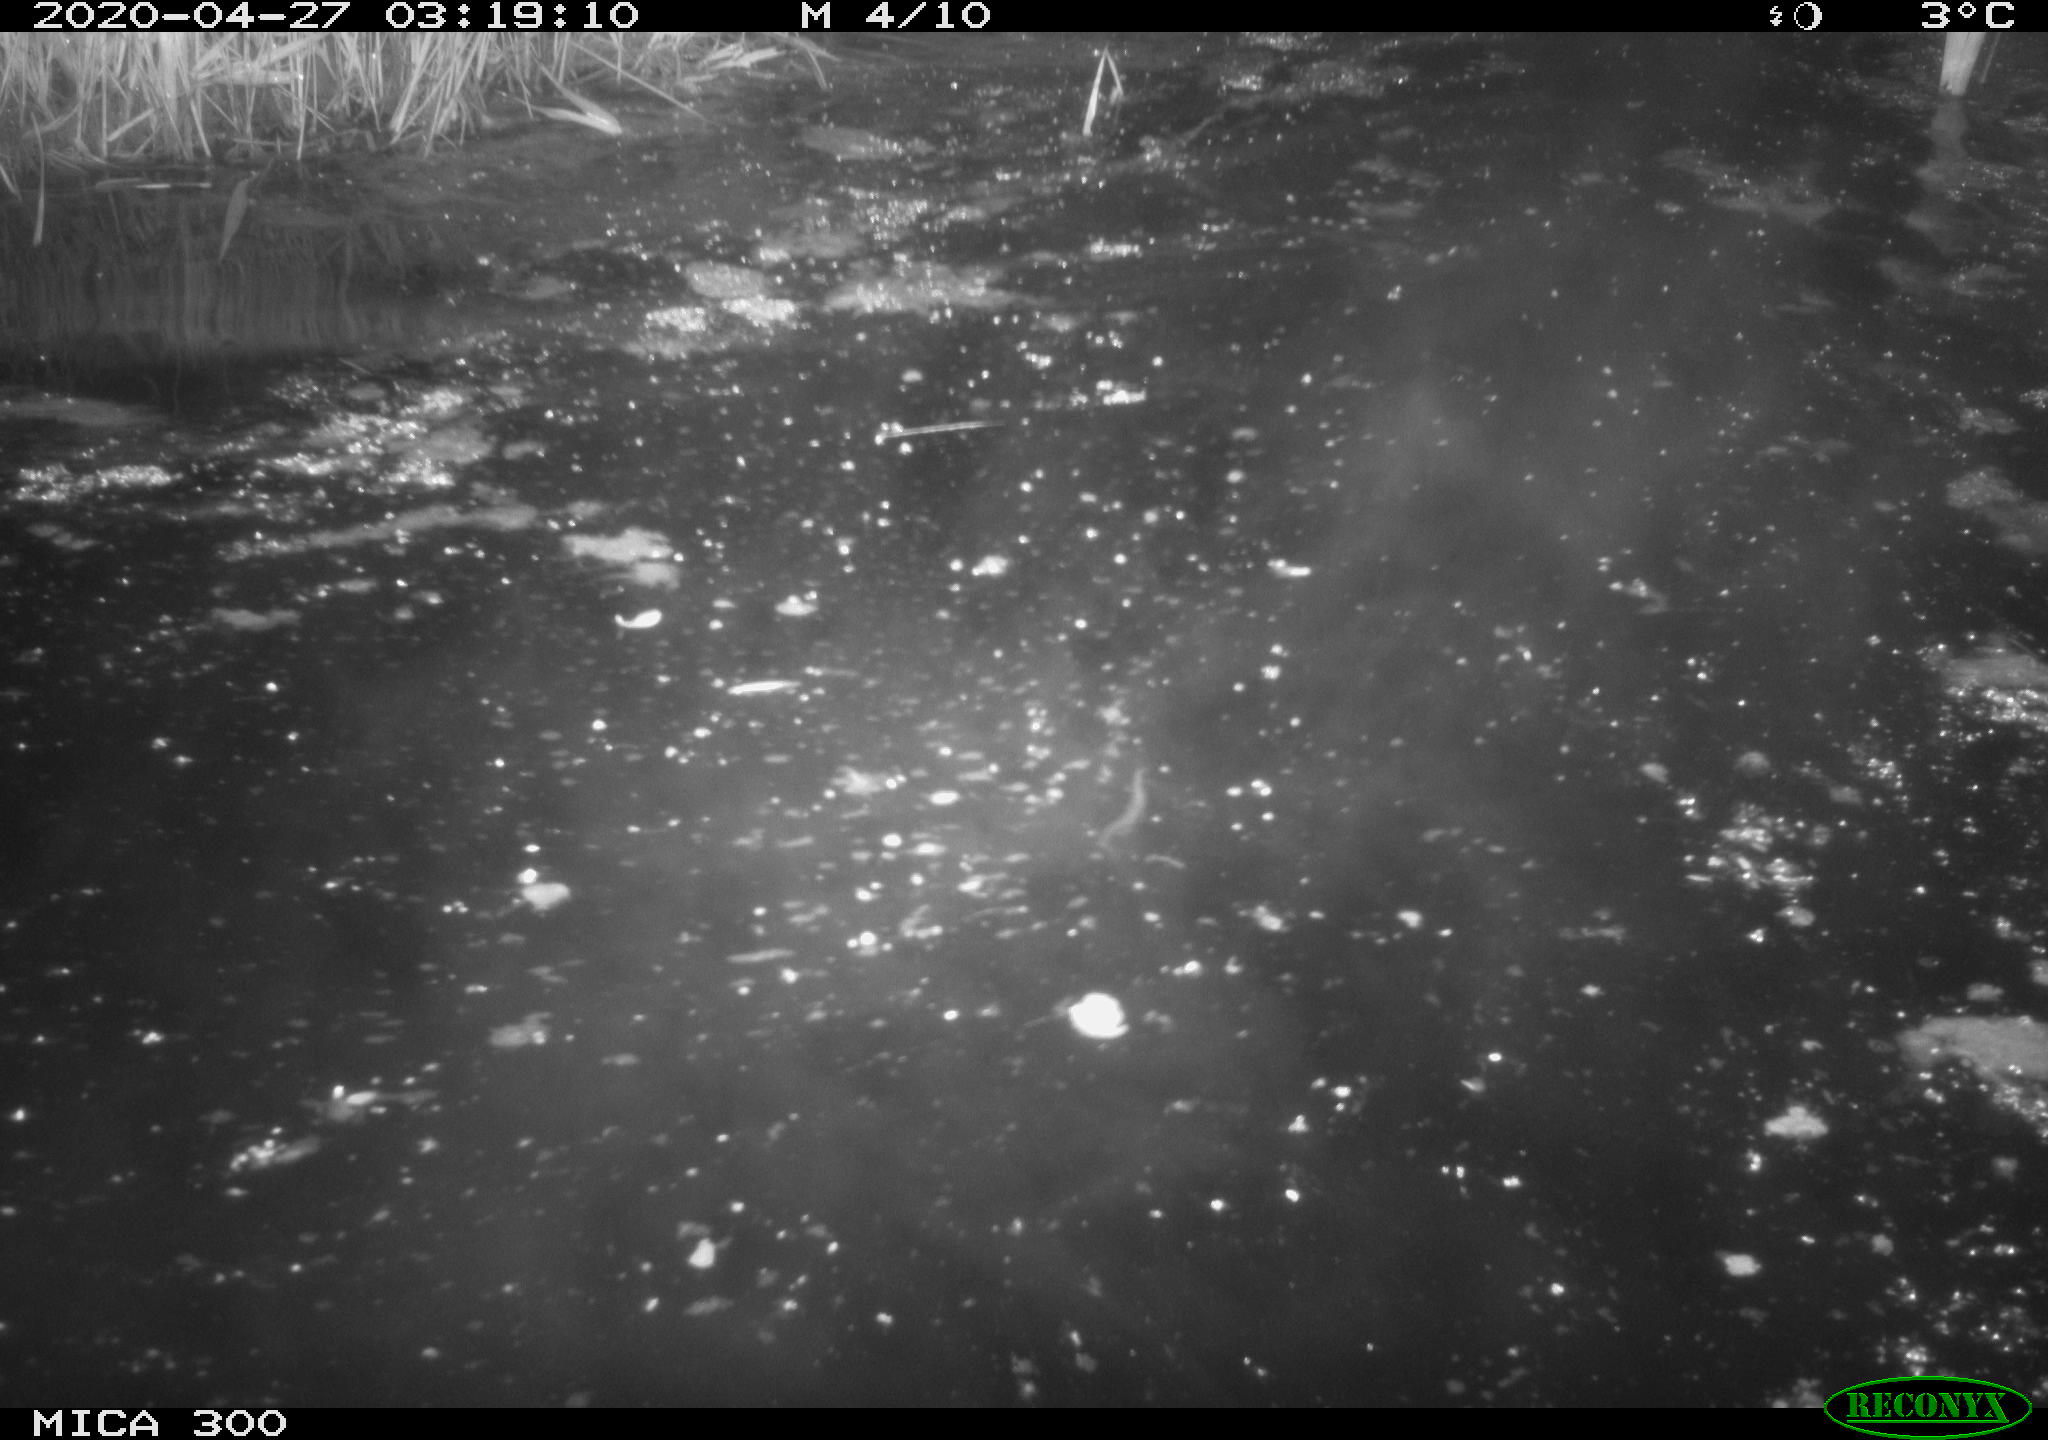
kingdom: Animalia
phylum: Chordata
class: Mammalia
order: Rodentia
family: Castoridae
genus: Castor
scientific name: Castor fiber
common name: Eurasian beaver
